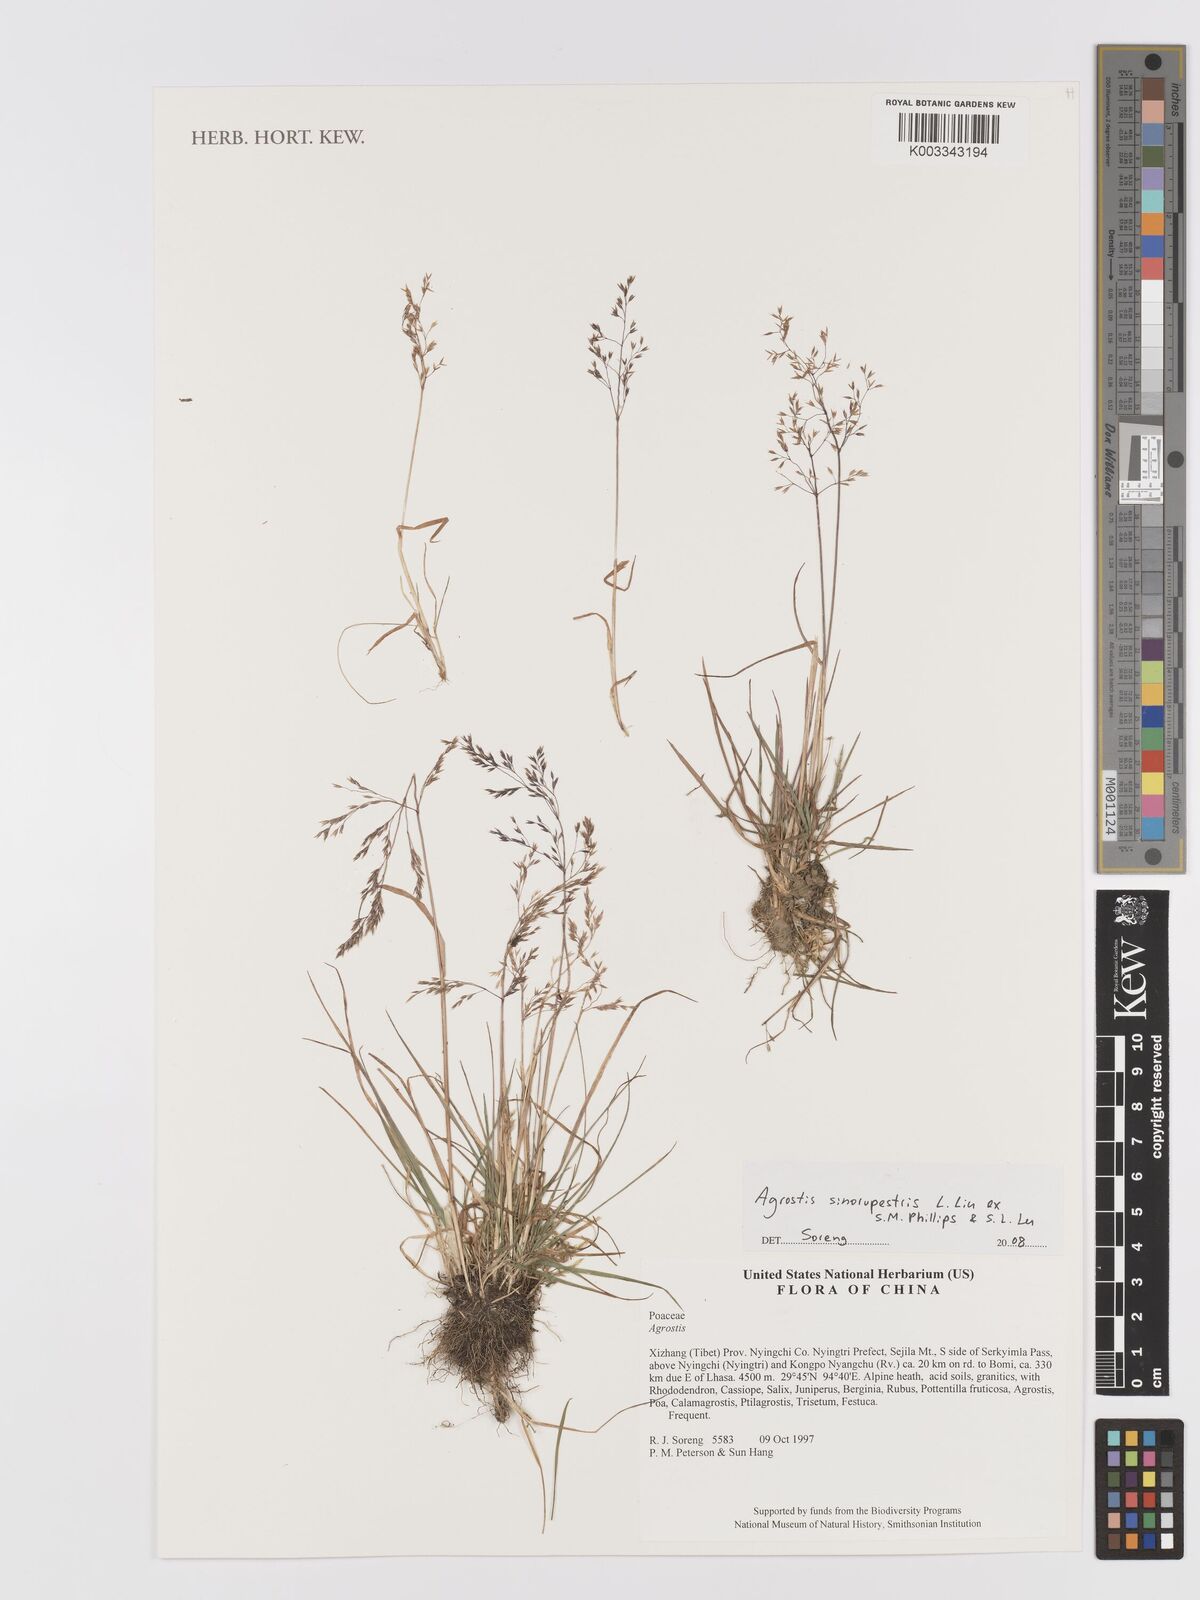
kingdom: Plantae
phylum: Tracheophyta
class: Liliopsida
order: Poales
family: Poaceae
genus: Agrostis
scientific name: Agrostis sinorupestris
